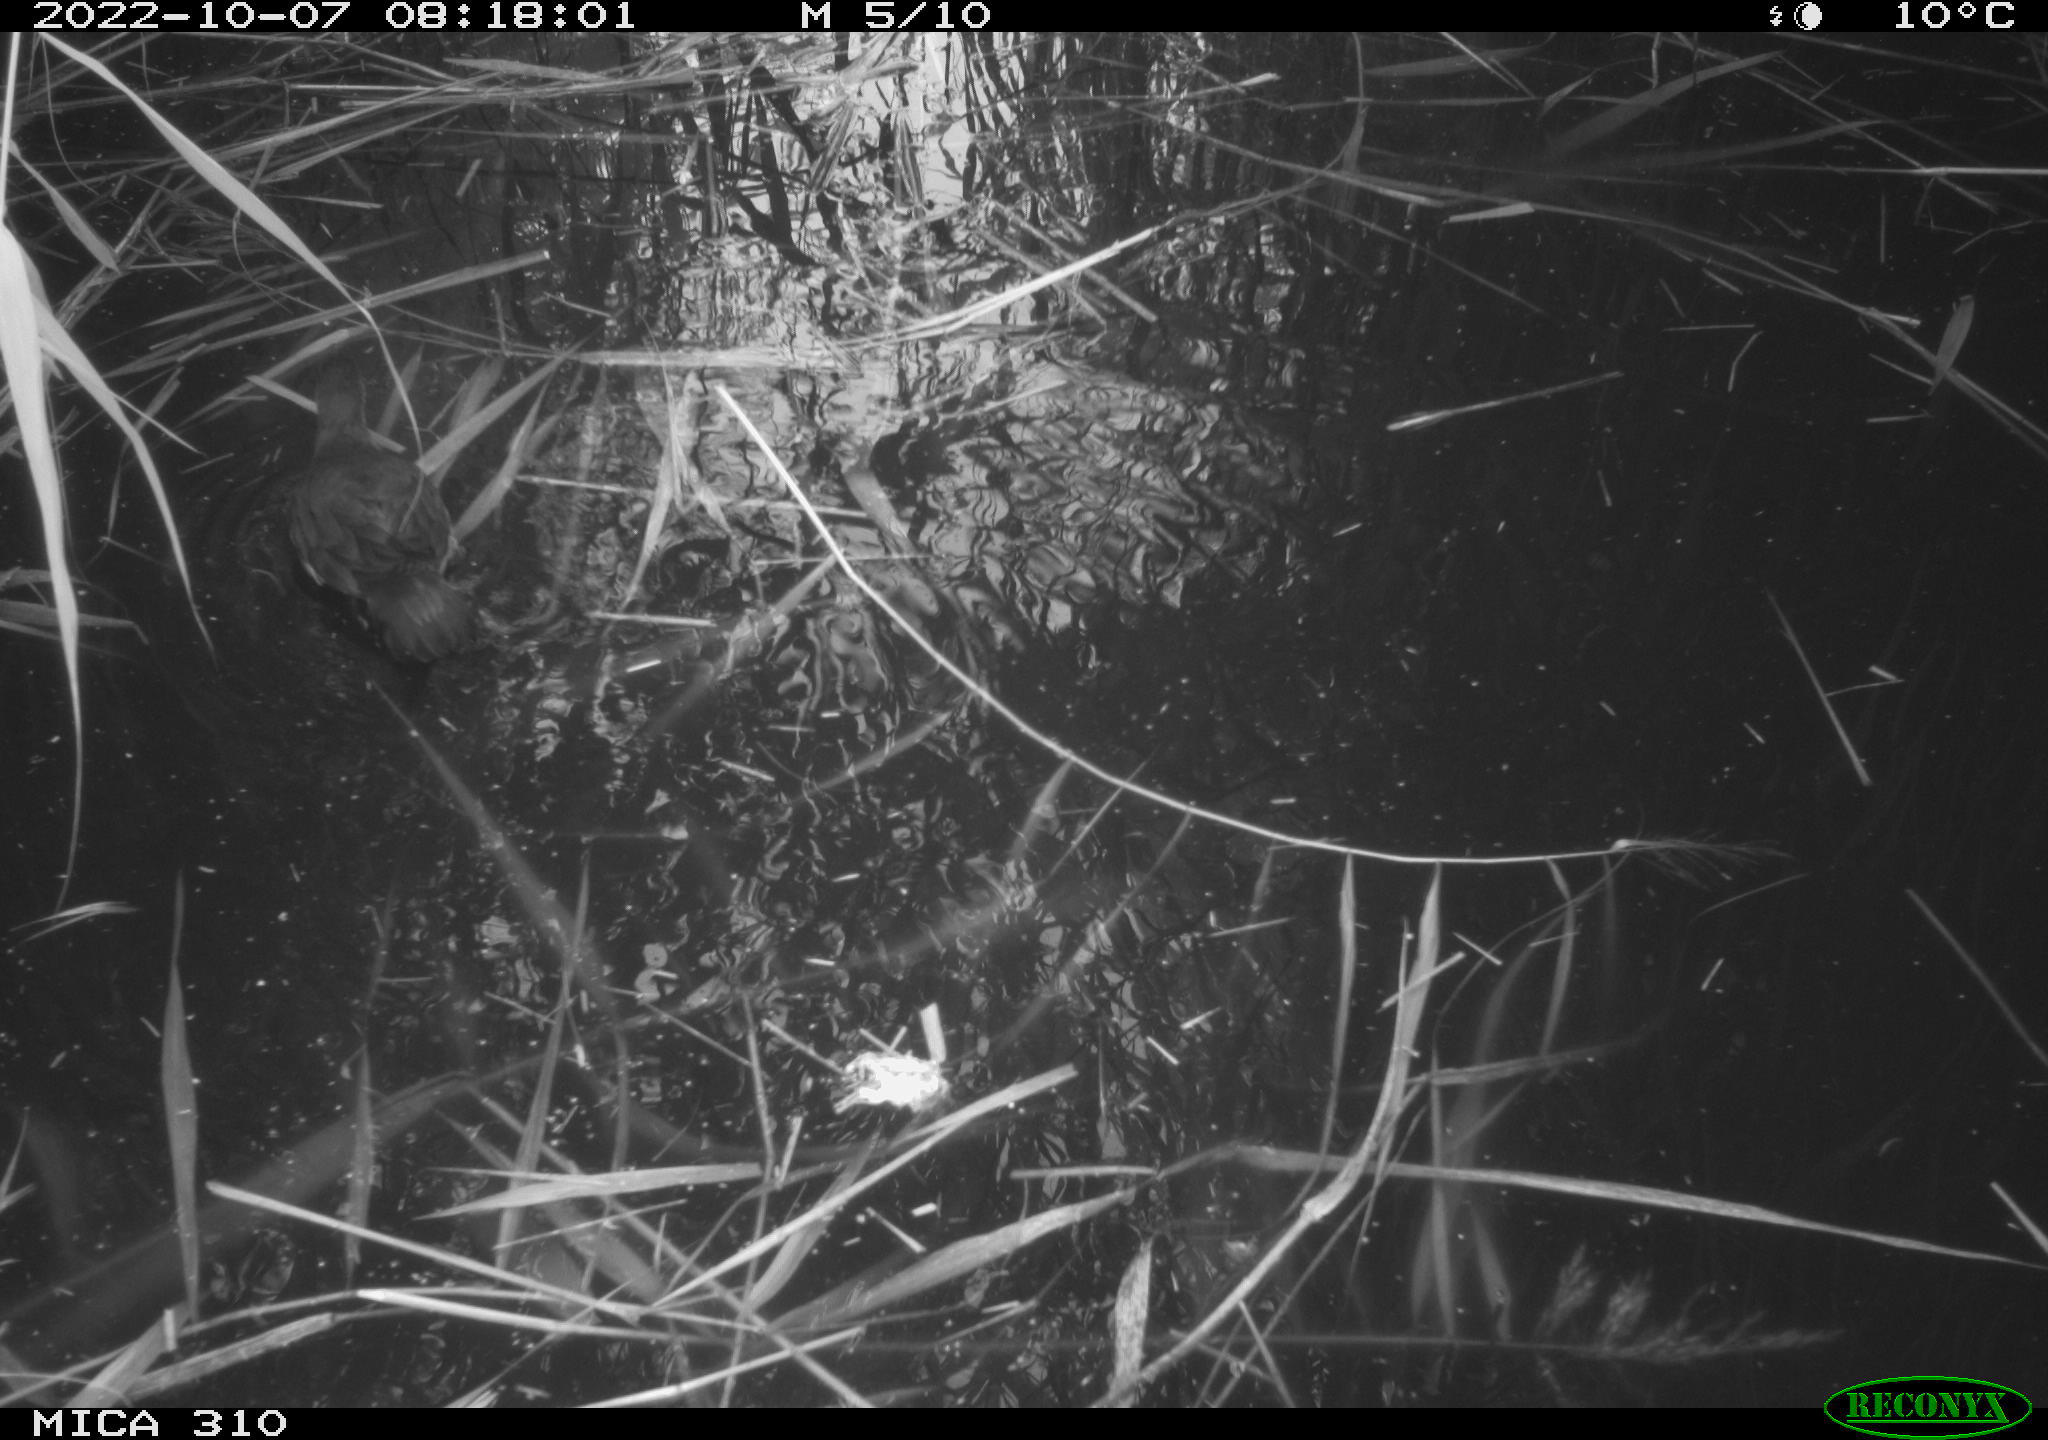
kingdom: Animalia
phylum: Chordata
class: Aves
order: Gruiformes
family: Rallidae
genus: Gallinula
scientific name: Gallinula chloropus
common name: Common moorhen
